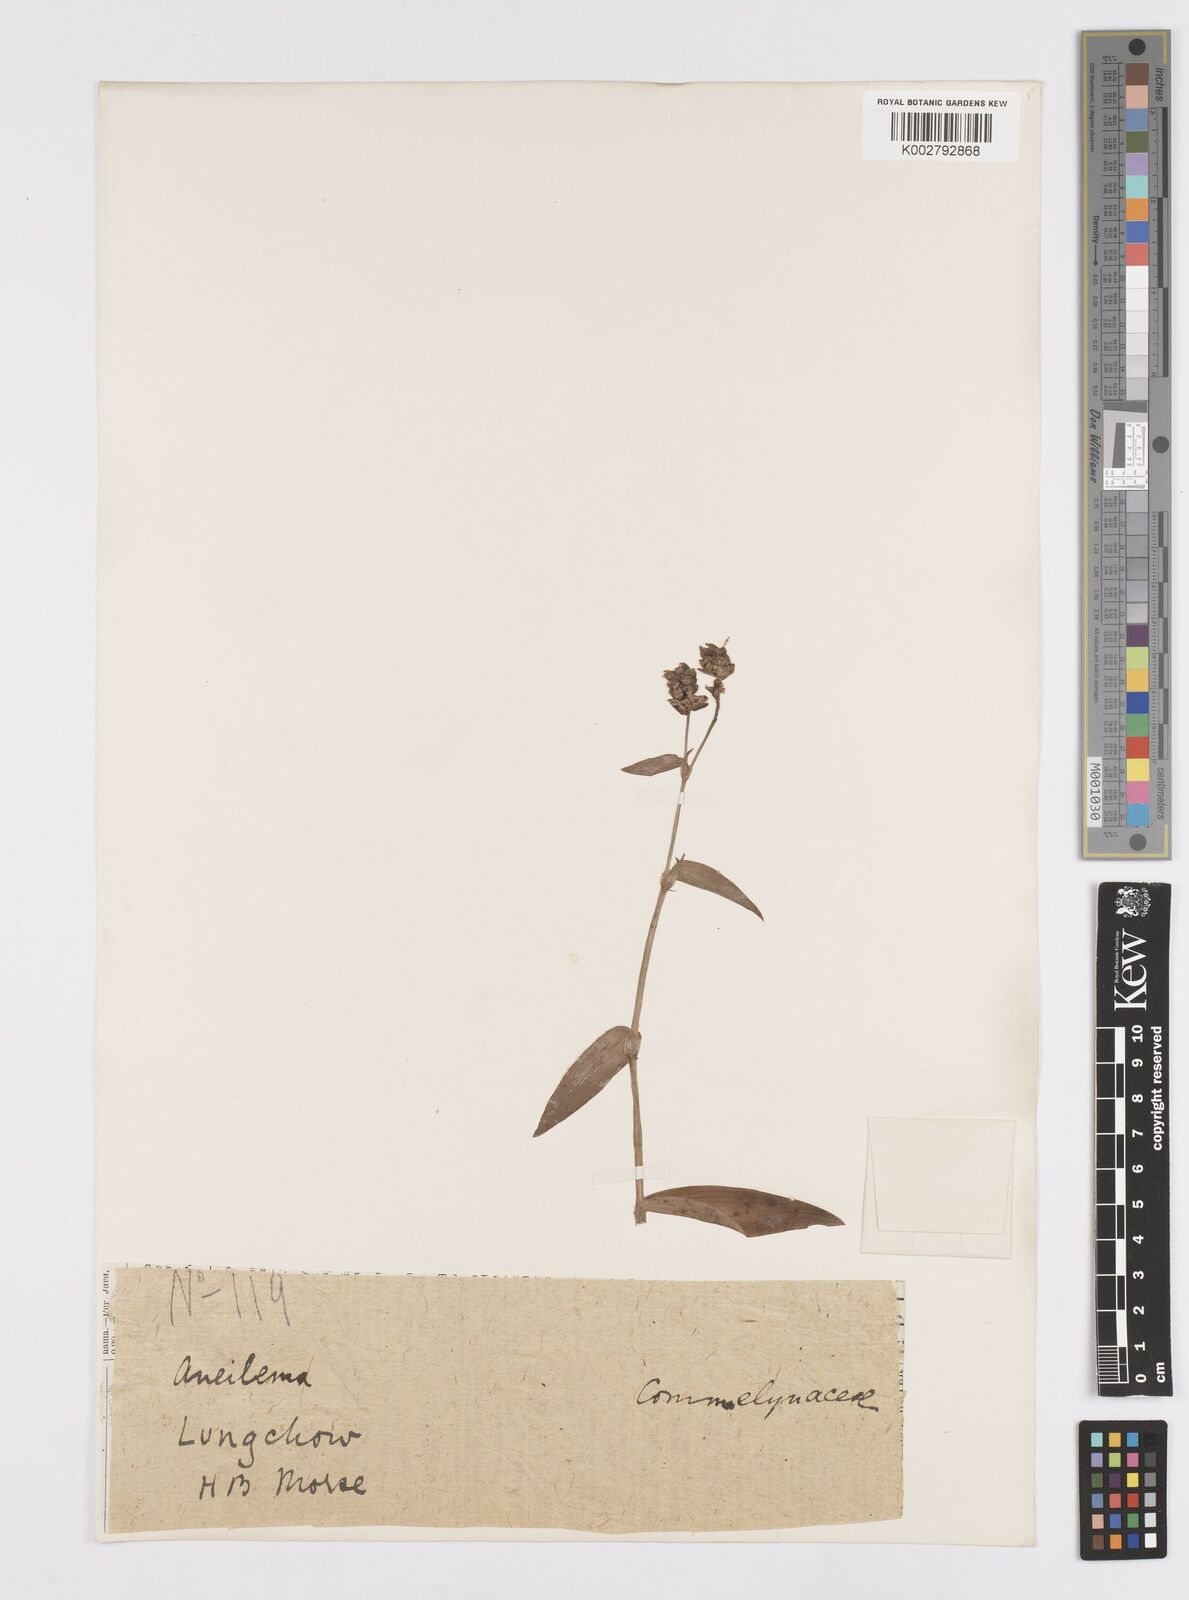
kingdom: Plantae
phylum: Tracheophyta
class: Liliopsida
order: Commelinales
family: Commelinaceae
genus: Murdannia
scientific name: Murdannia
